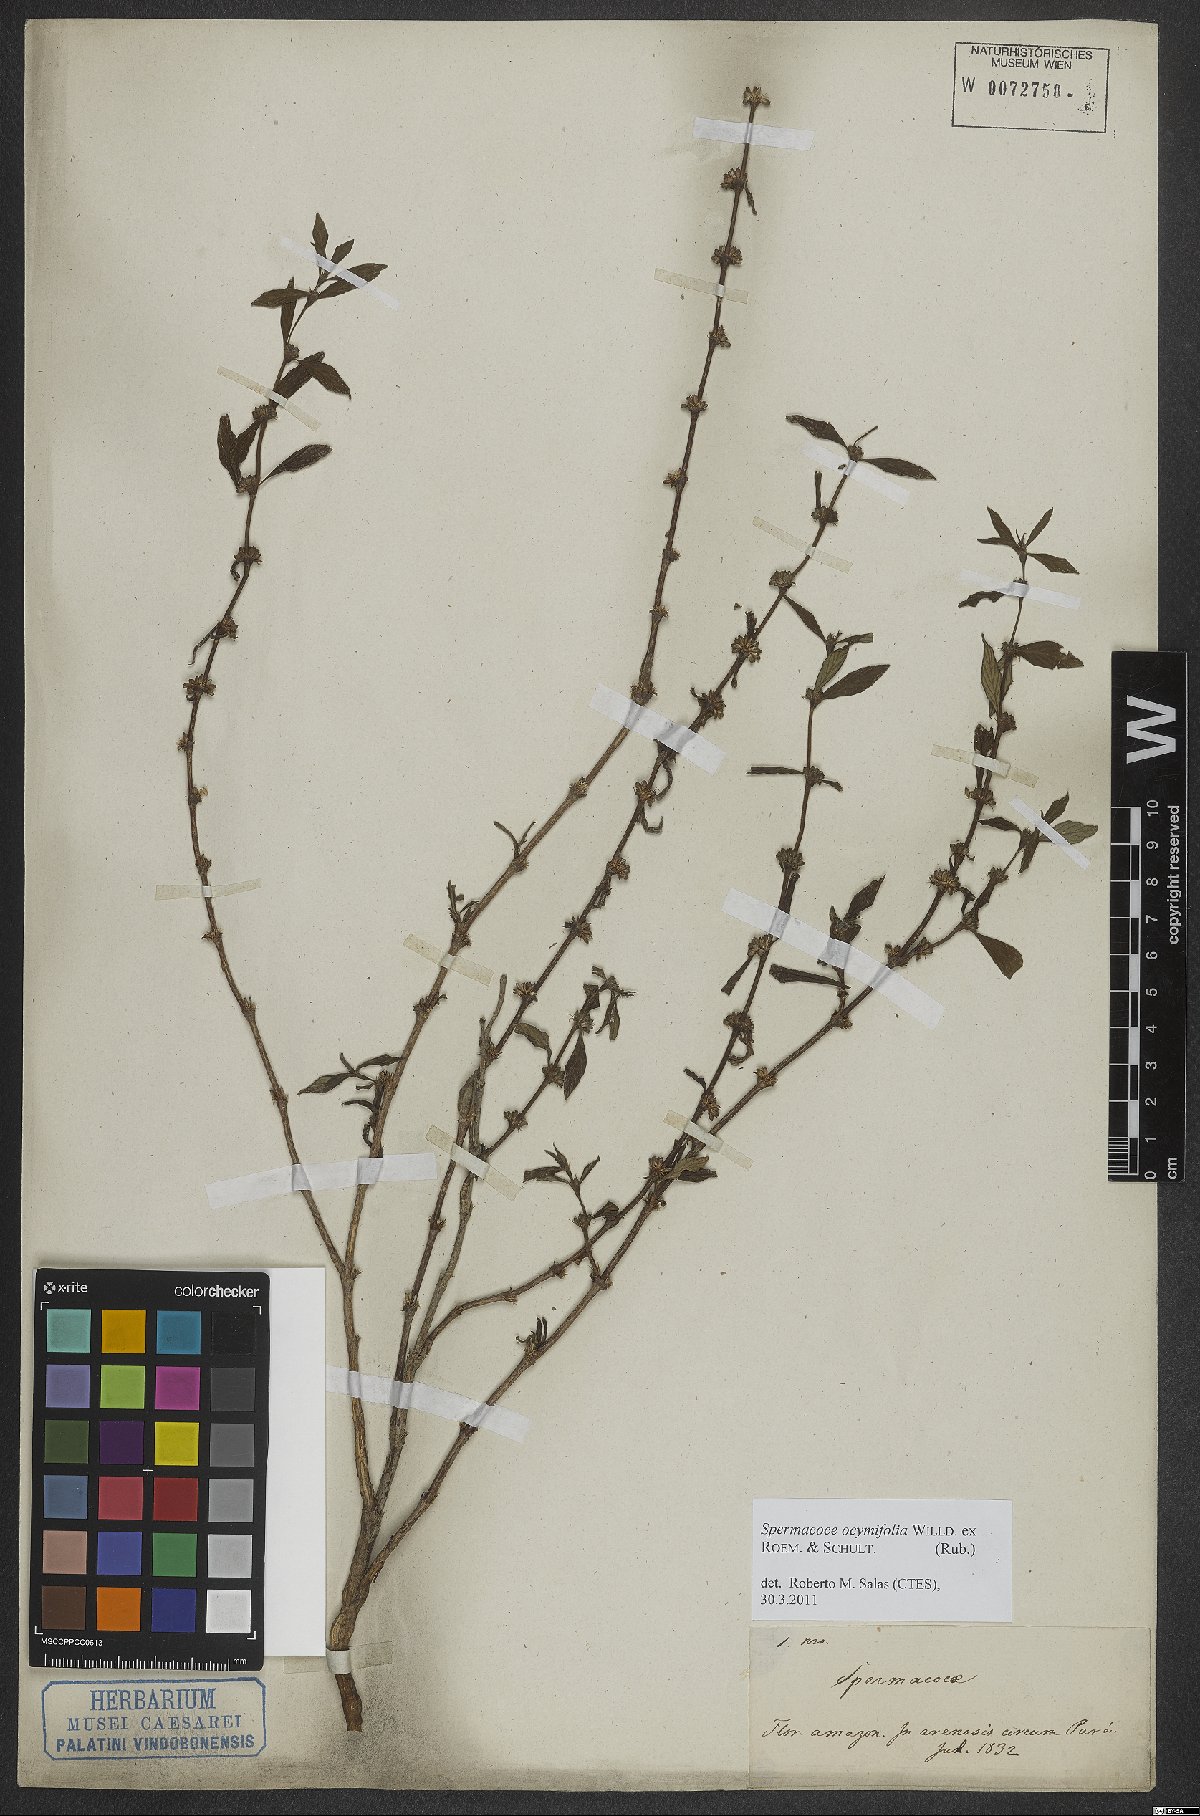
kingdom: Plantae
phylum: Tracheophyta
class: Magnoliopsida
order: Gentianales
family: Rubiaceae
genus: Spermacoce
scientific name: Spermacoce ocymifolia
